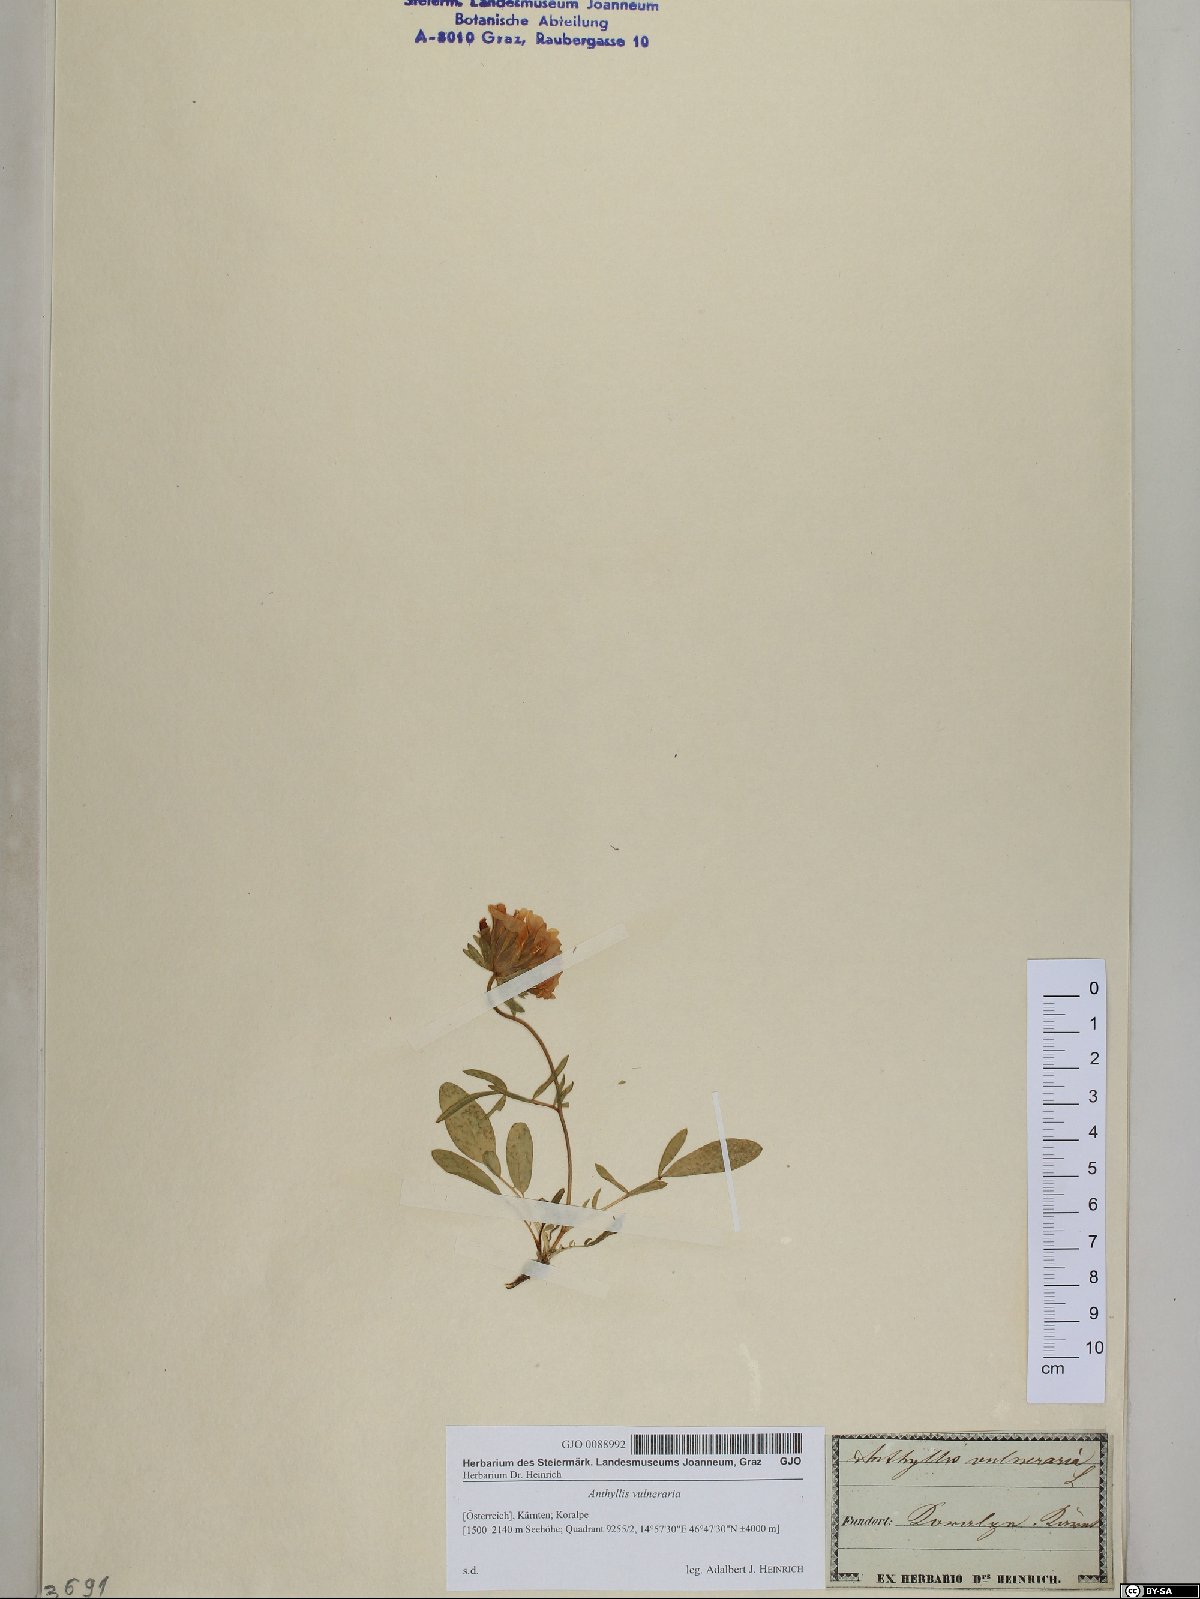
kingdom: Plantae
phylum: Tracheophyta
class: Magnoliopsida
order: Fabales
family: Fabaceae
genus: Anthyllis
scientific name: Anthyllis vulneraria
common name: Kidney vetch
